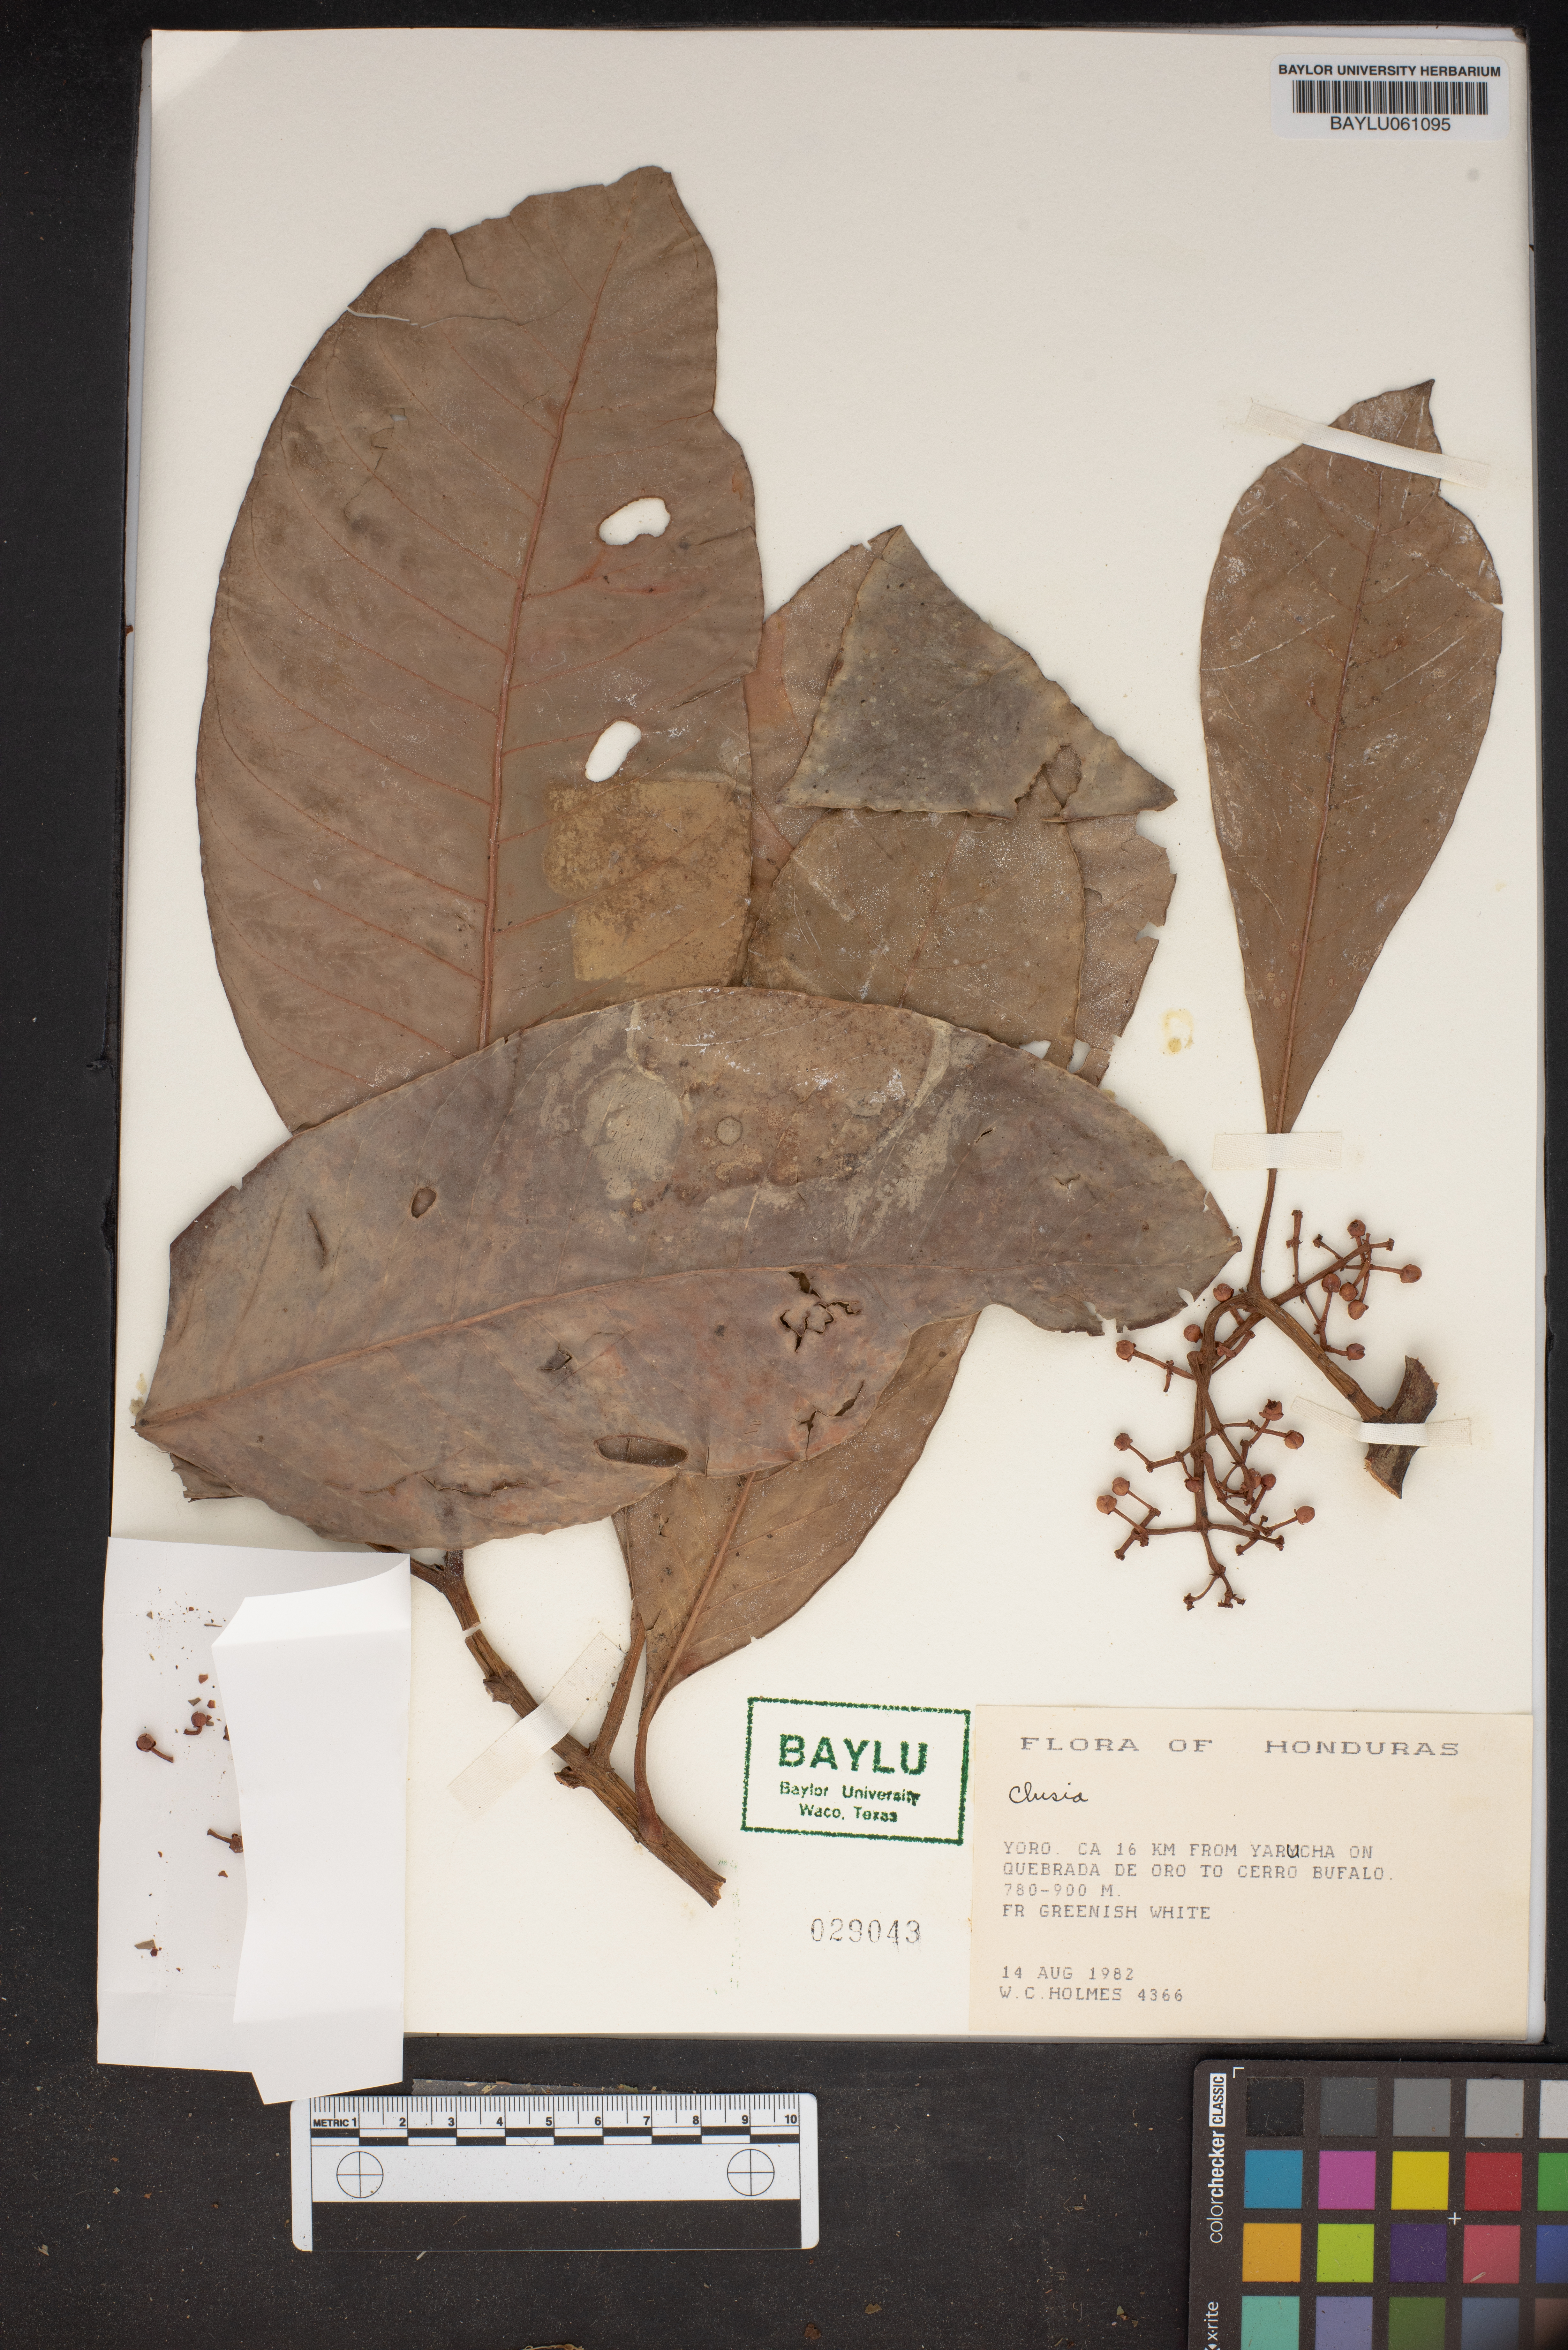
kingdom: Plantae
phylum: Tracheophyta
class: Magnoliopsida
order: Malpighiales
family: Clusiaceae
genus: Clusia
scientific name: Clusia
